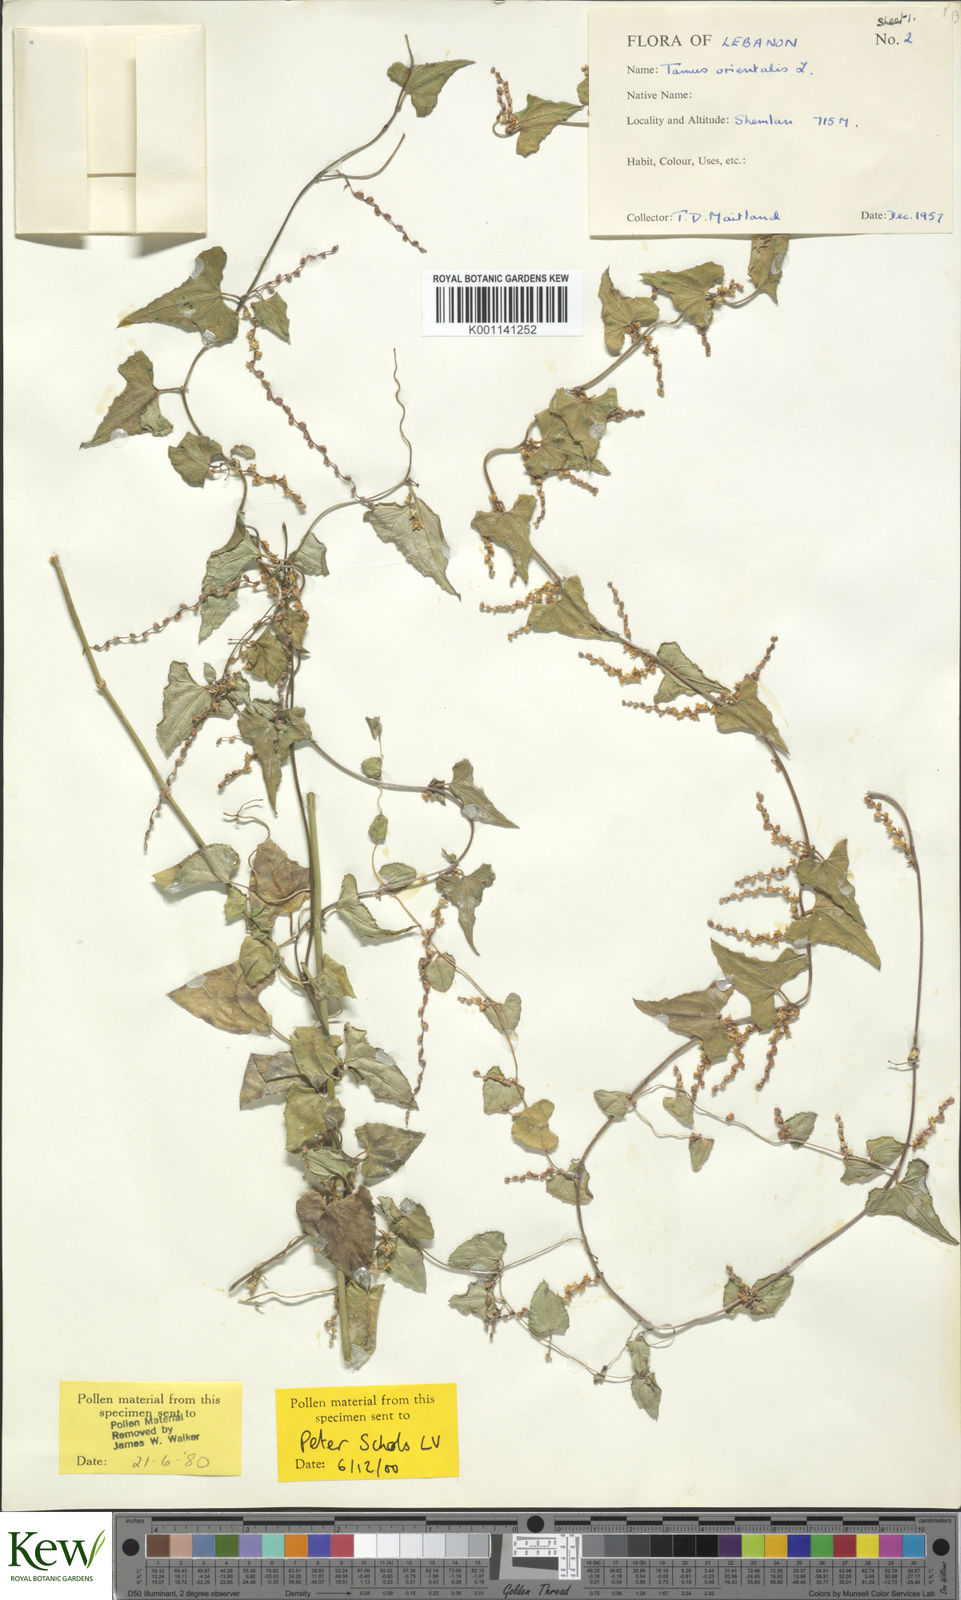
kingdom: Plantae
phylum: Tracheophyta
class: Liliopsida
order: Dioscoreales
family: Dioscoreaceae
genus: Dioscorea
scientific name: Dioscorea
